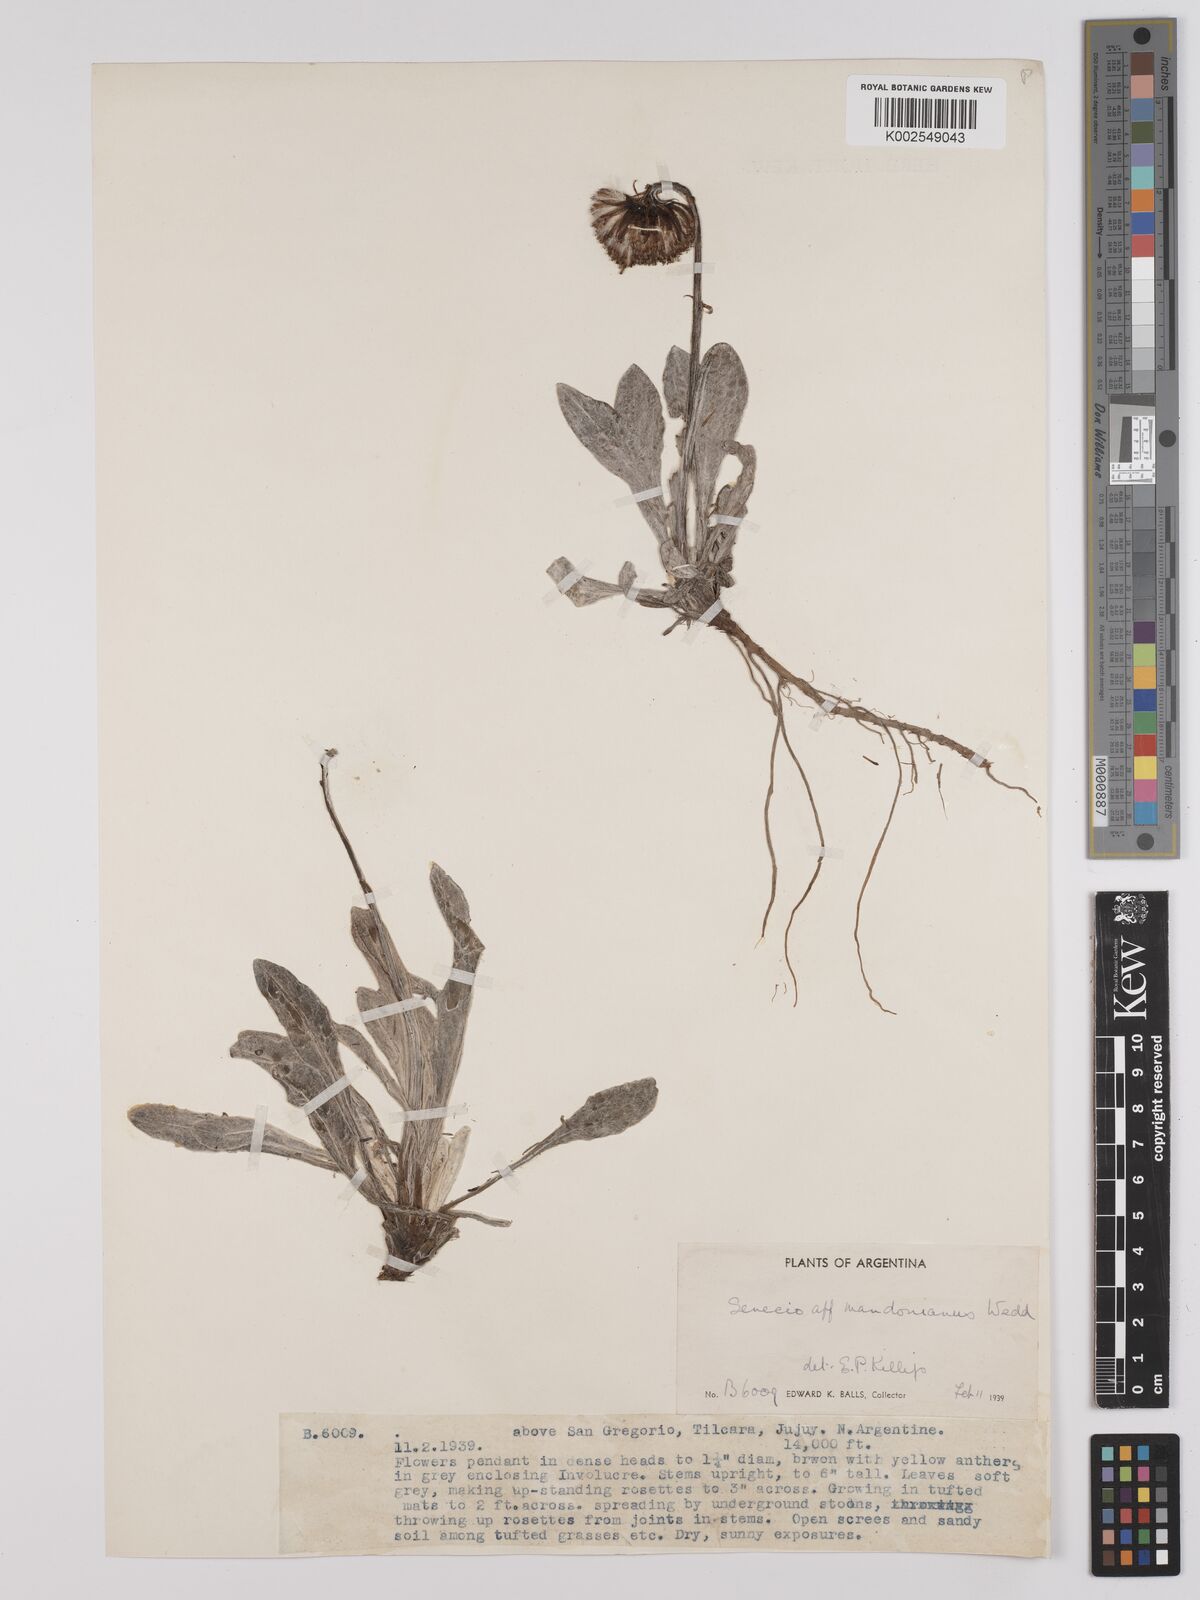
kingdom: Plantae
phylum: Tracheophyta
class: Magnoliopsida
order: Asterales
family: Asteraceae
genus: Culcitium
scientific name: Culcitium humile
